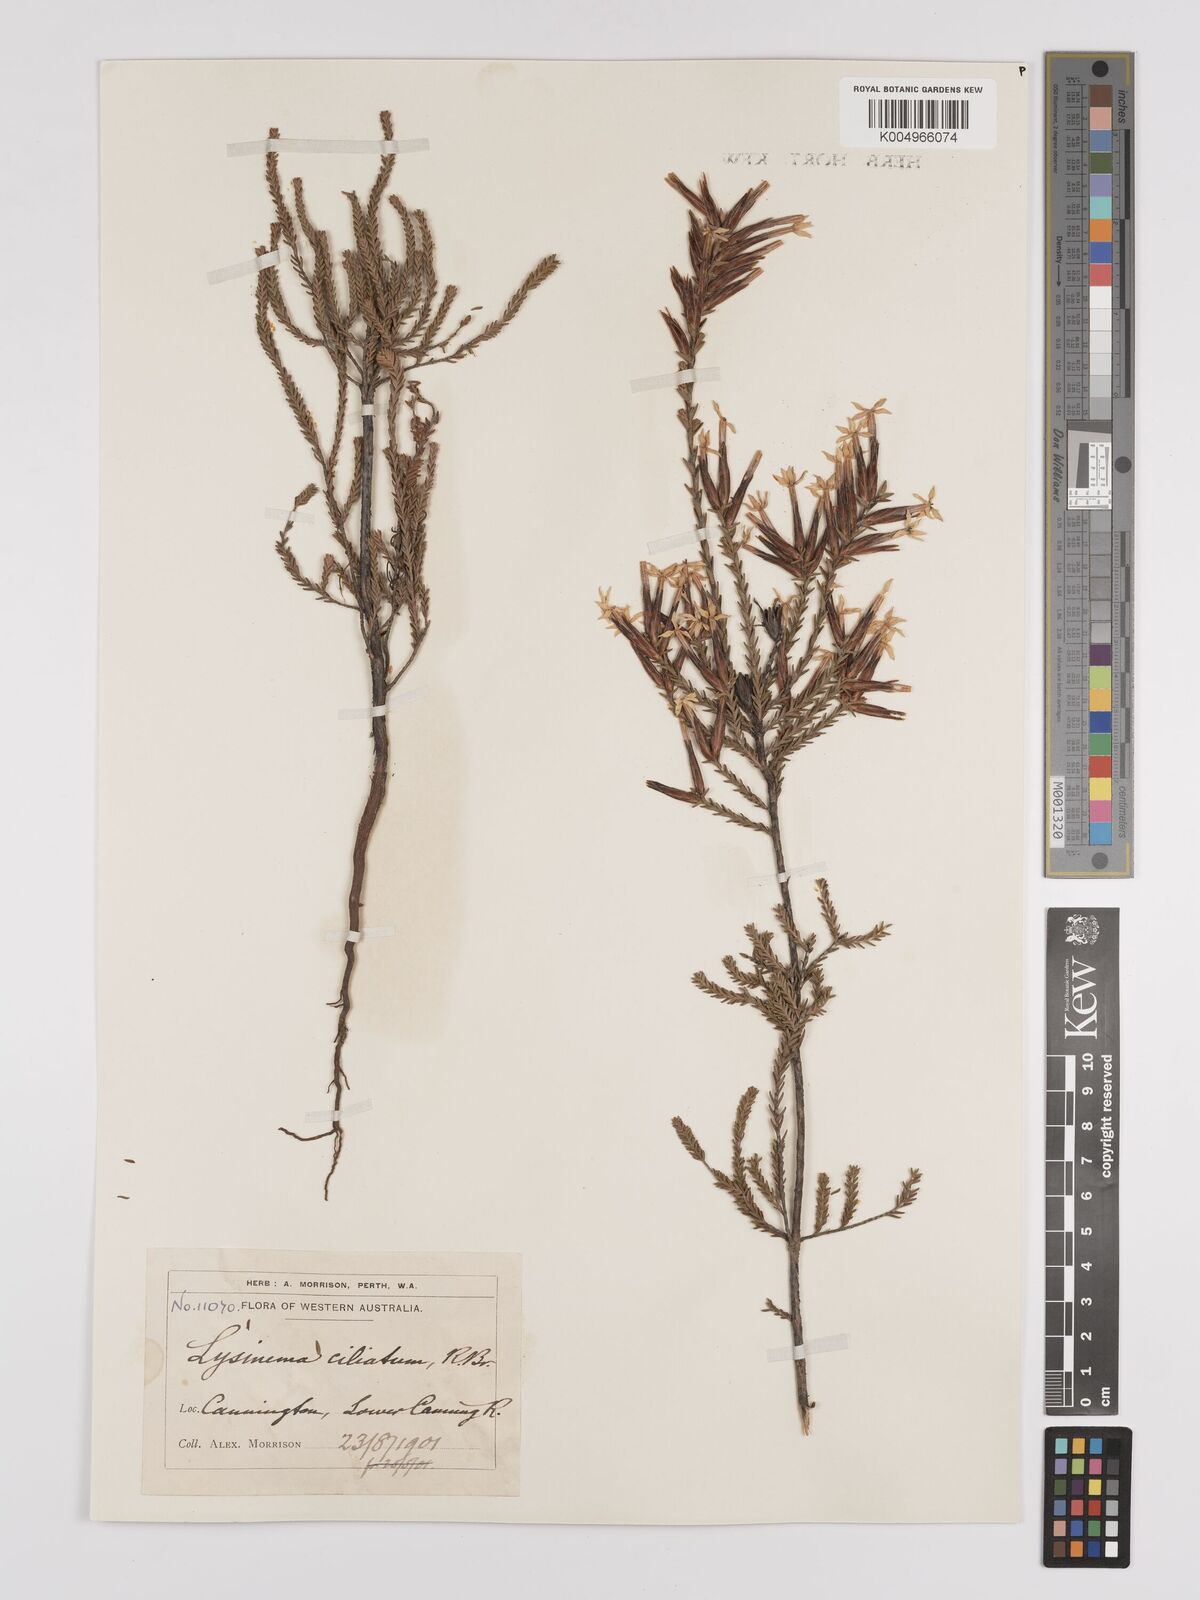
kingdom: Plantae
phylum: Tracheophyta
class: Magnoliopsida
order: Ericales
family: Ericaceae
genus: Lysinema
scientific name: Lysinema ciliatum
